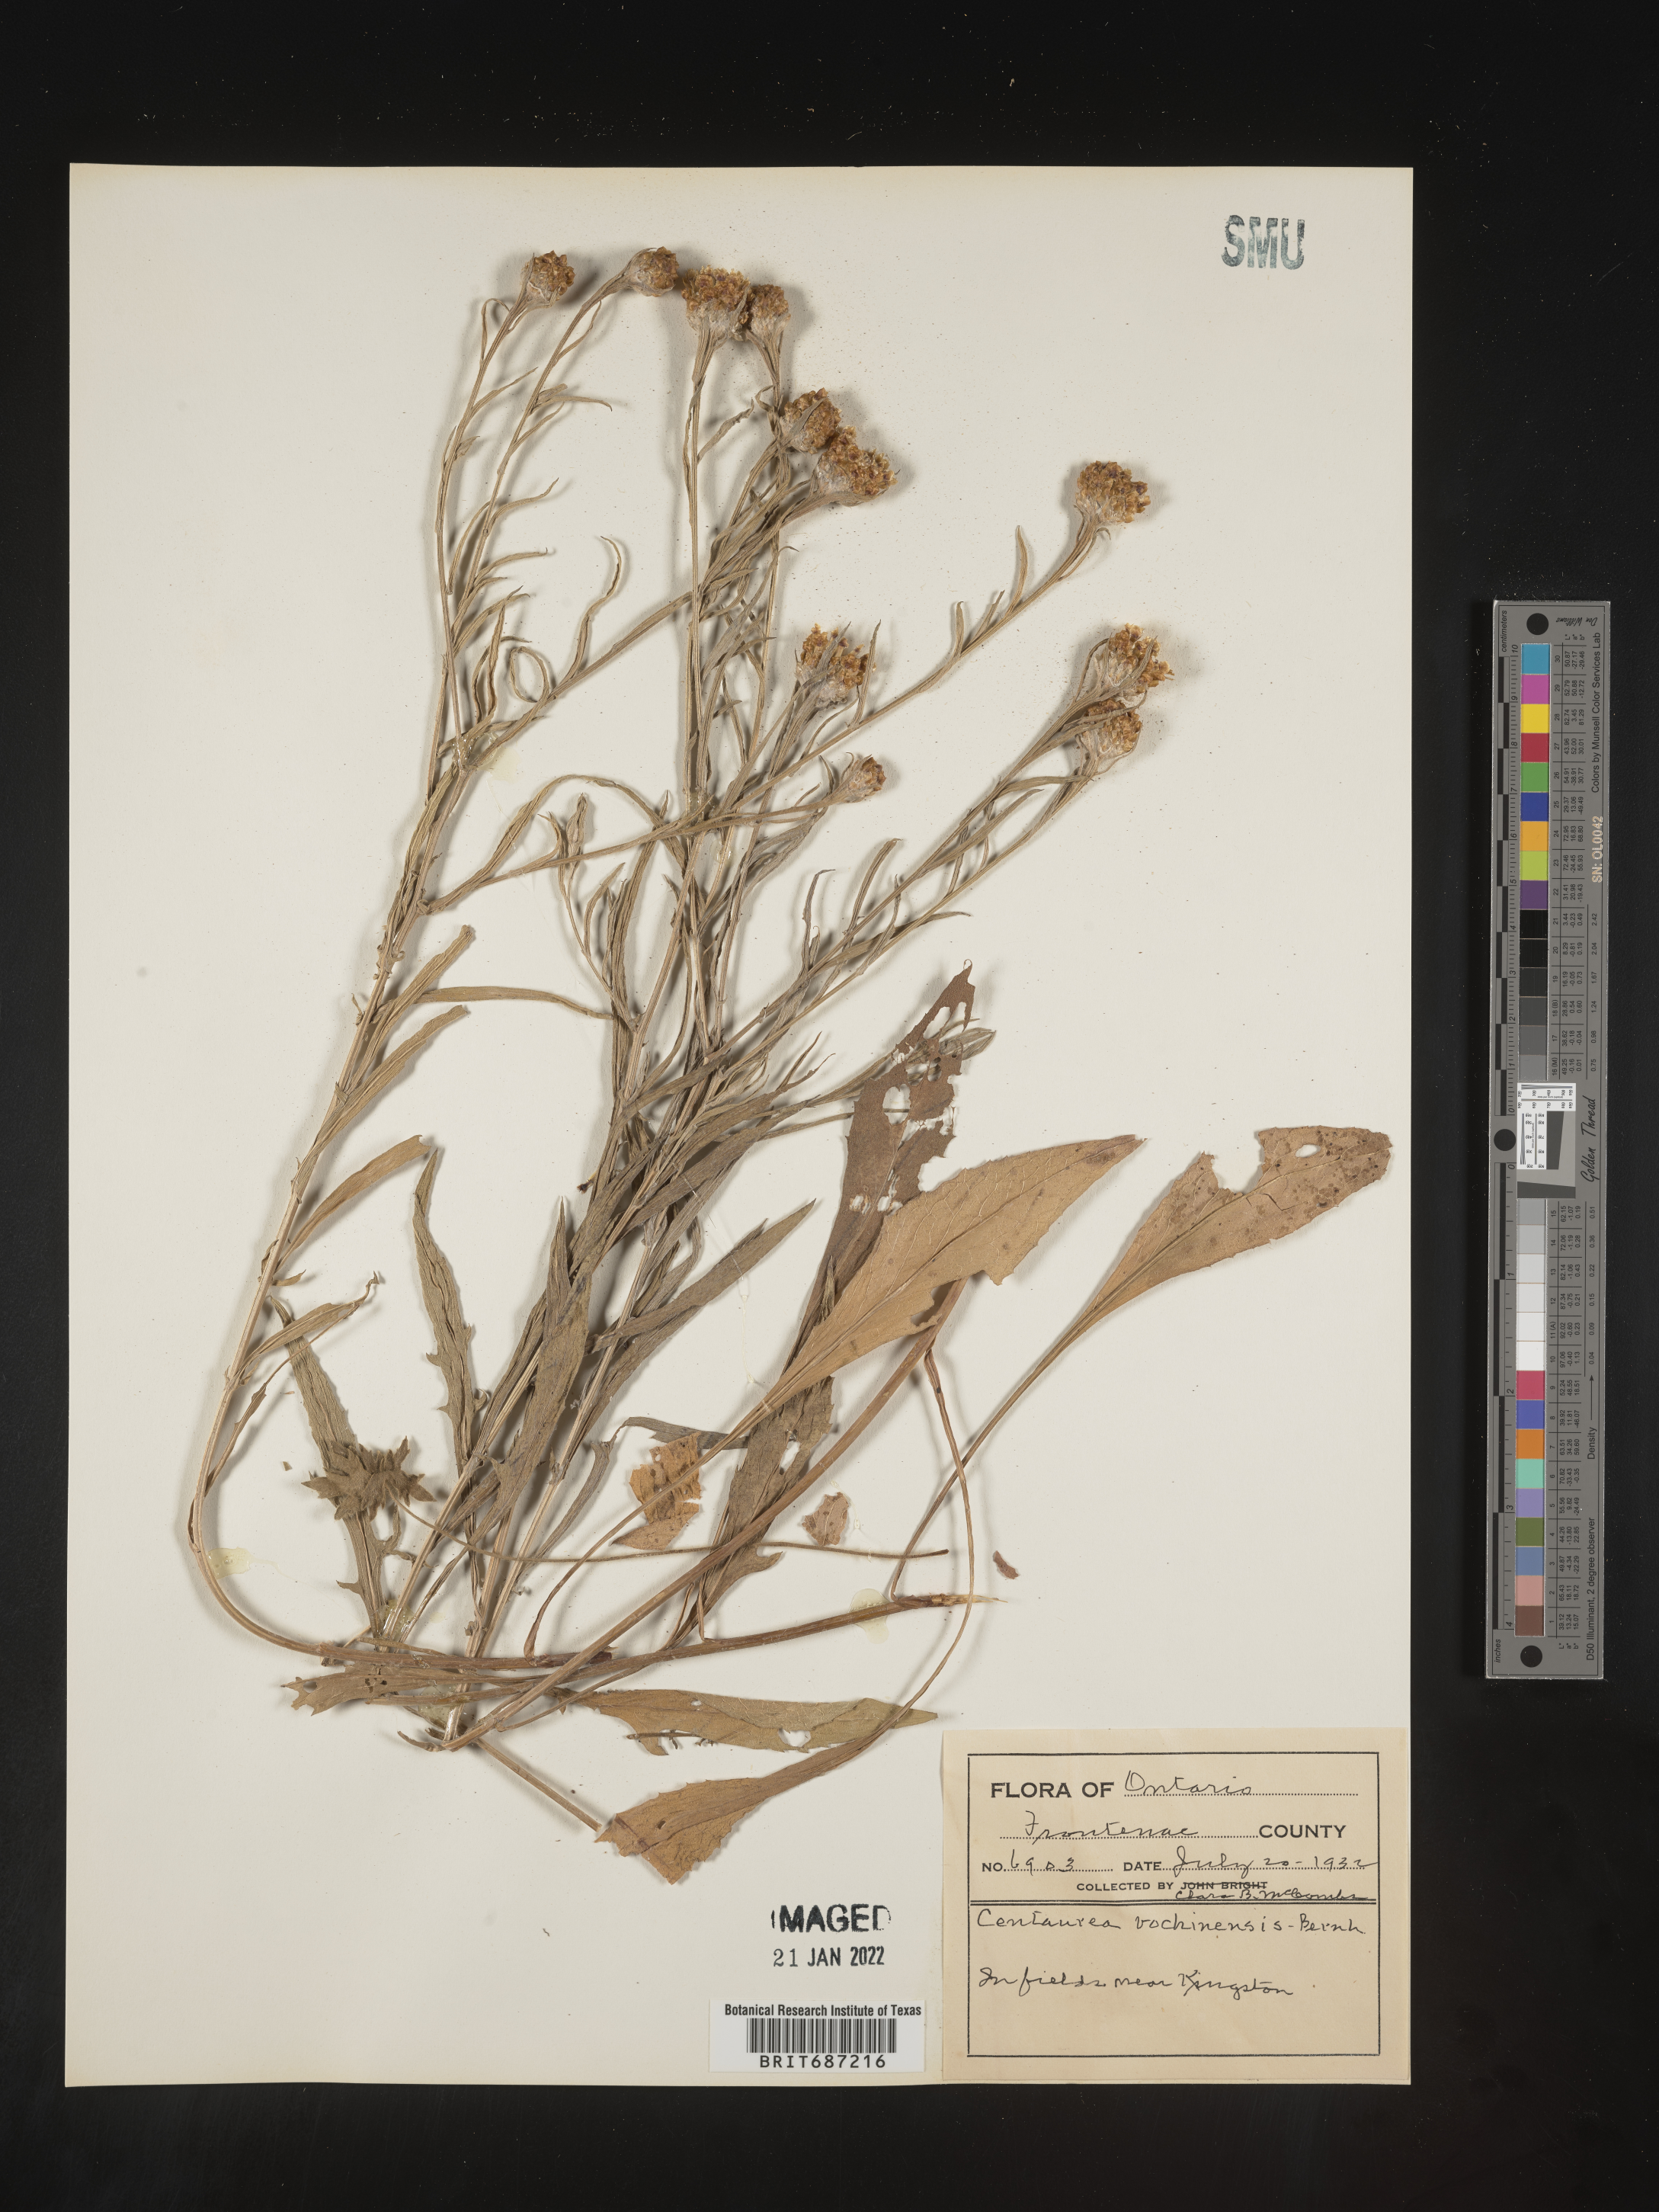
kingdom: Plantae
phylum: Tracheophyta
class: Magnoliopsida
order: Asterales
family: Asteraceae
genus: Centaurea
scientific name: Centaurea nigrescens
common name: Tyrol knapweed
